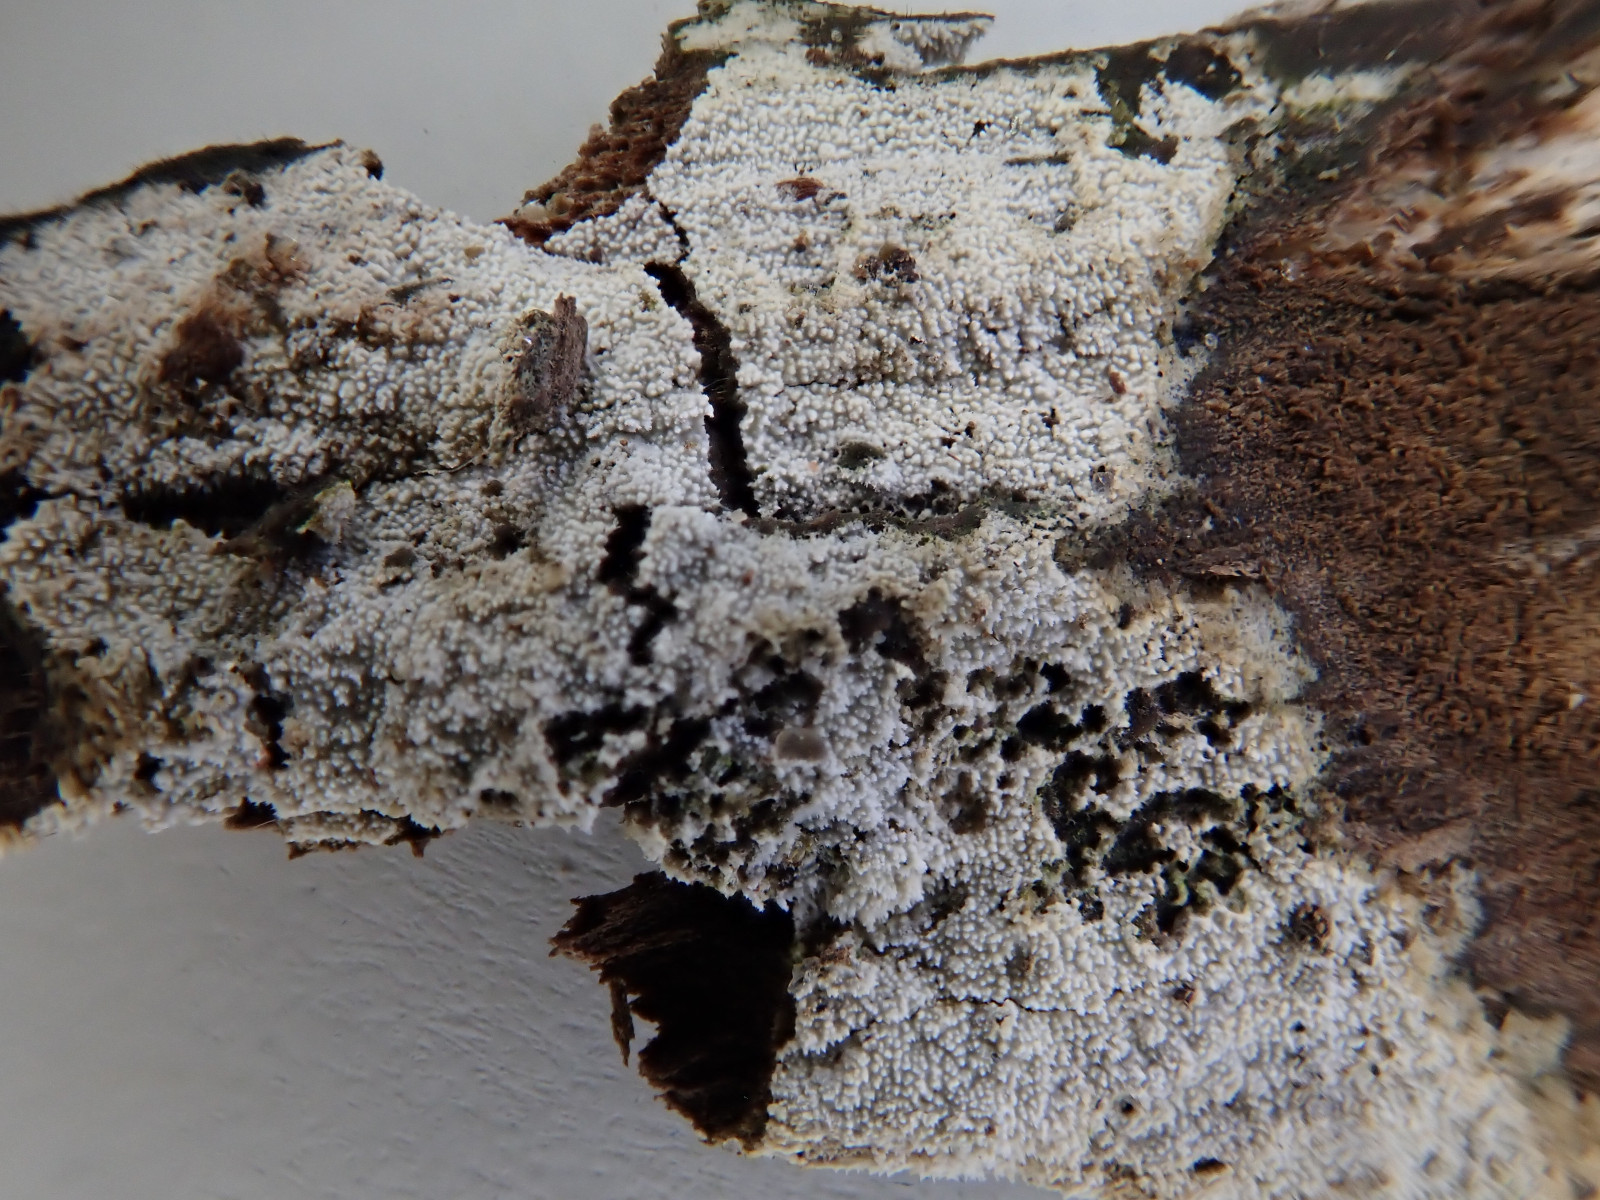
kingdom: Fungi
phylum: Basidiomycota
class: Agaricomycetes
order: Hymenochaetales
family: Schizoporaceae
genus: Xylodon
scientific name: Xylodon nesporii
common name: fintandet tandsvamp
